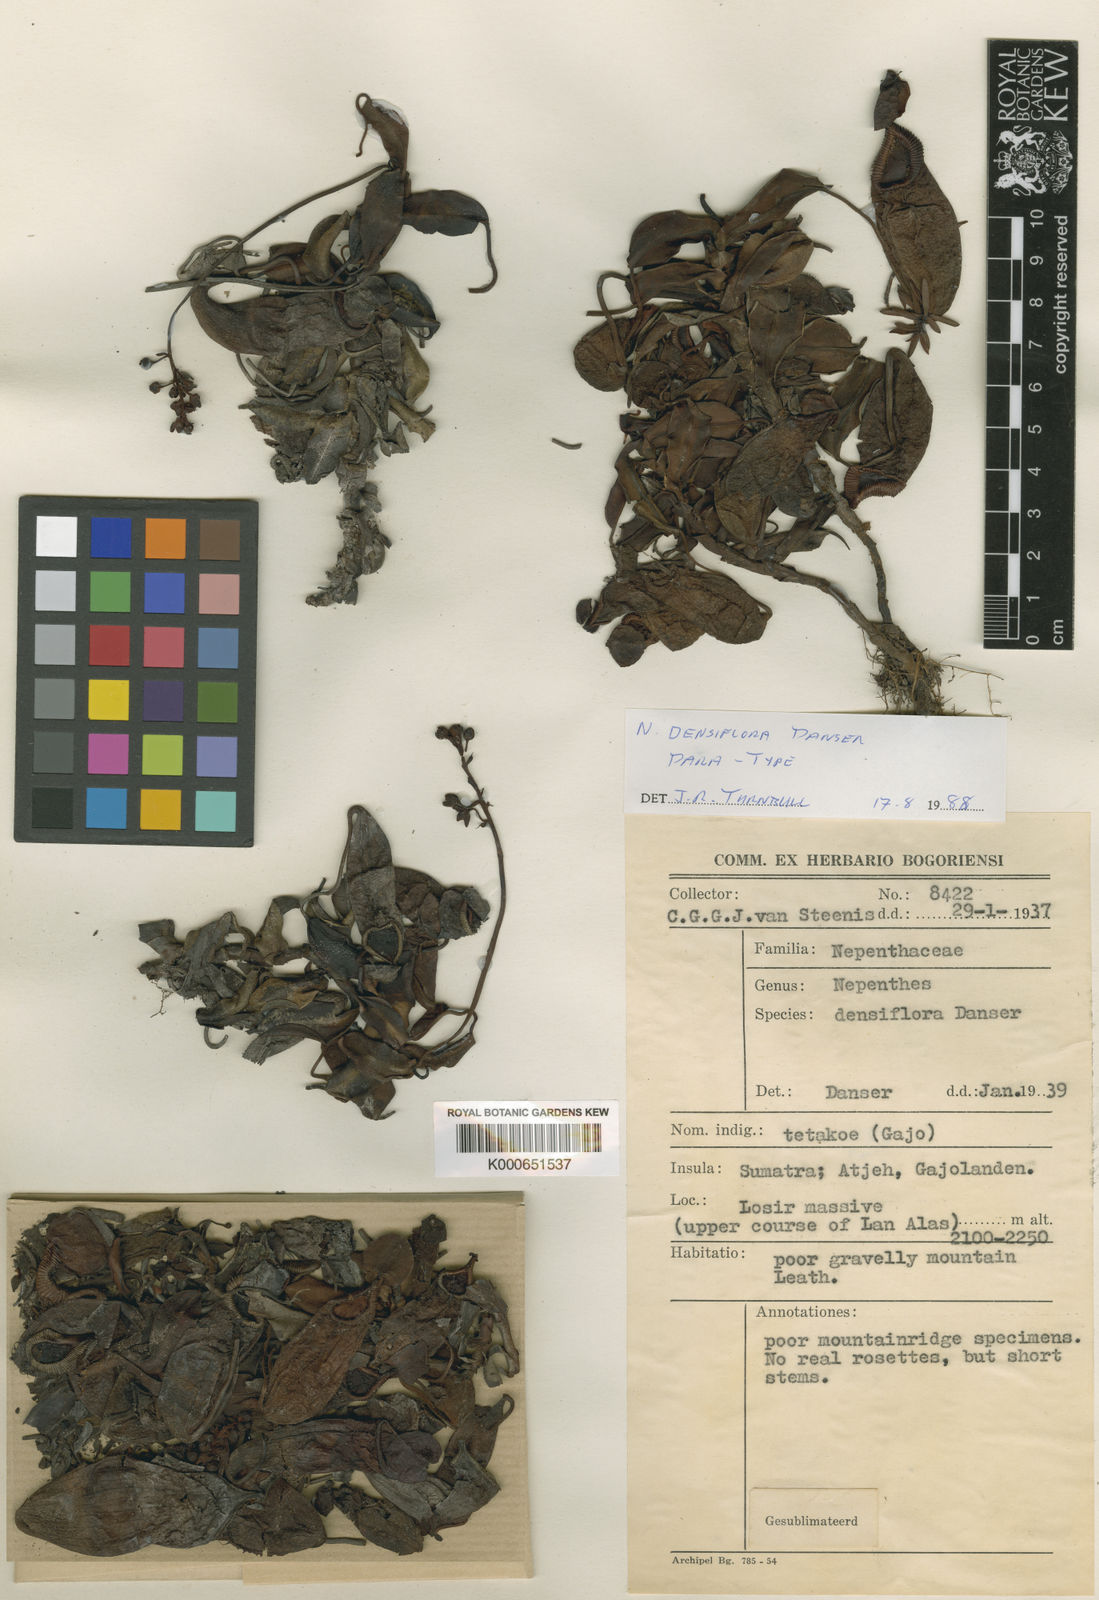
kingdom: Plantae
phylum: Tracheophyta
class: Magnoliopsida
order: Caryophyllales
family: Nepenthaceae
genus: Nepenthes
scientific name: Nepenthes densiflora
